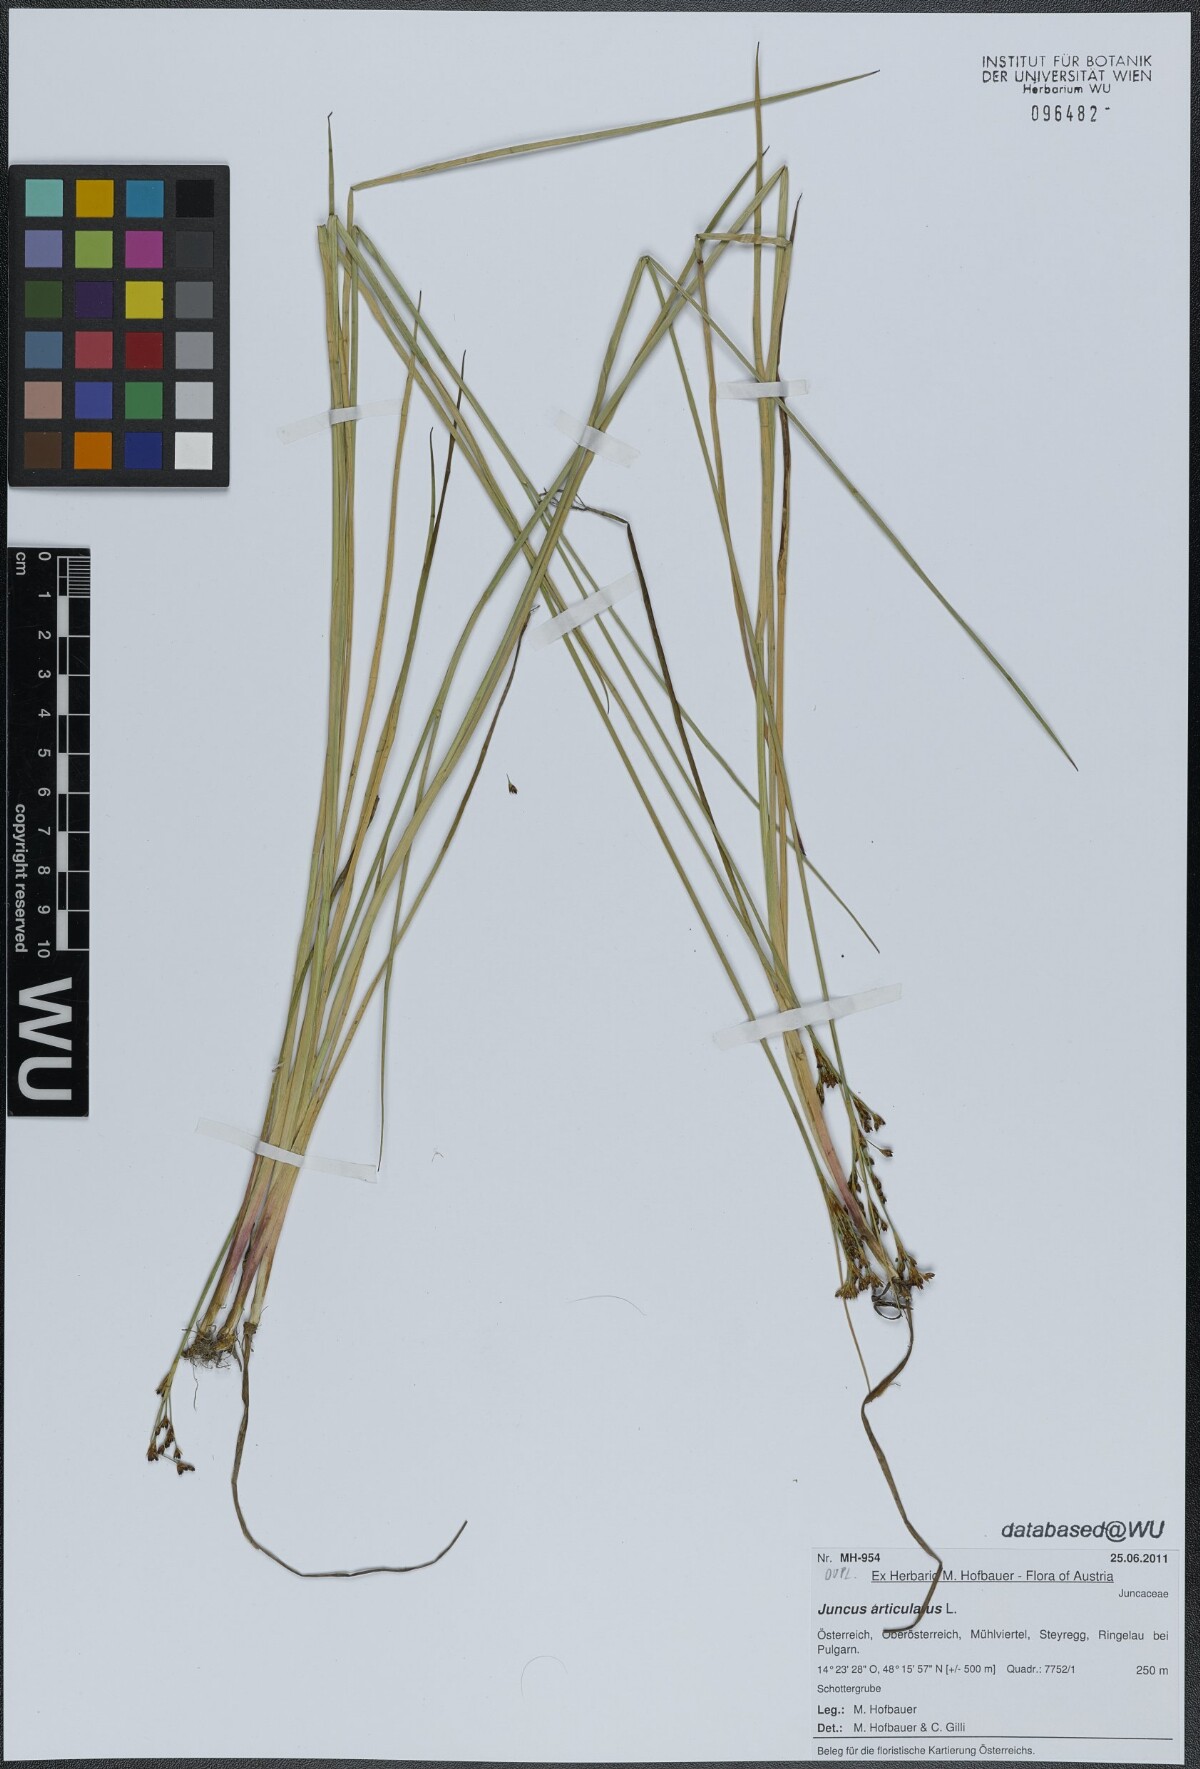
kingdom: Plantae
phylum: Tracheophyta
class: Liliopsida
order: Poales
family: Juncaceae
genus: Juncus
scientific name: Juncus articulatus
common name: Jointed rush
